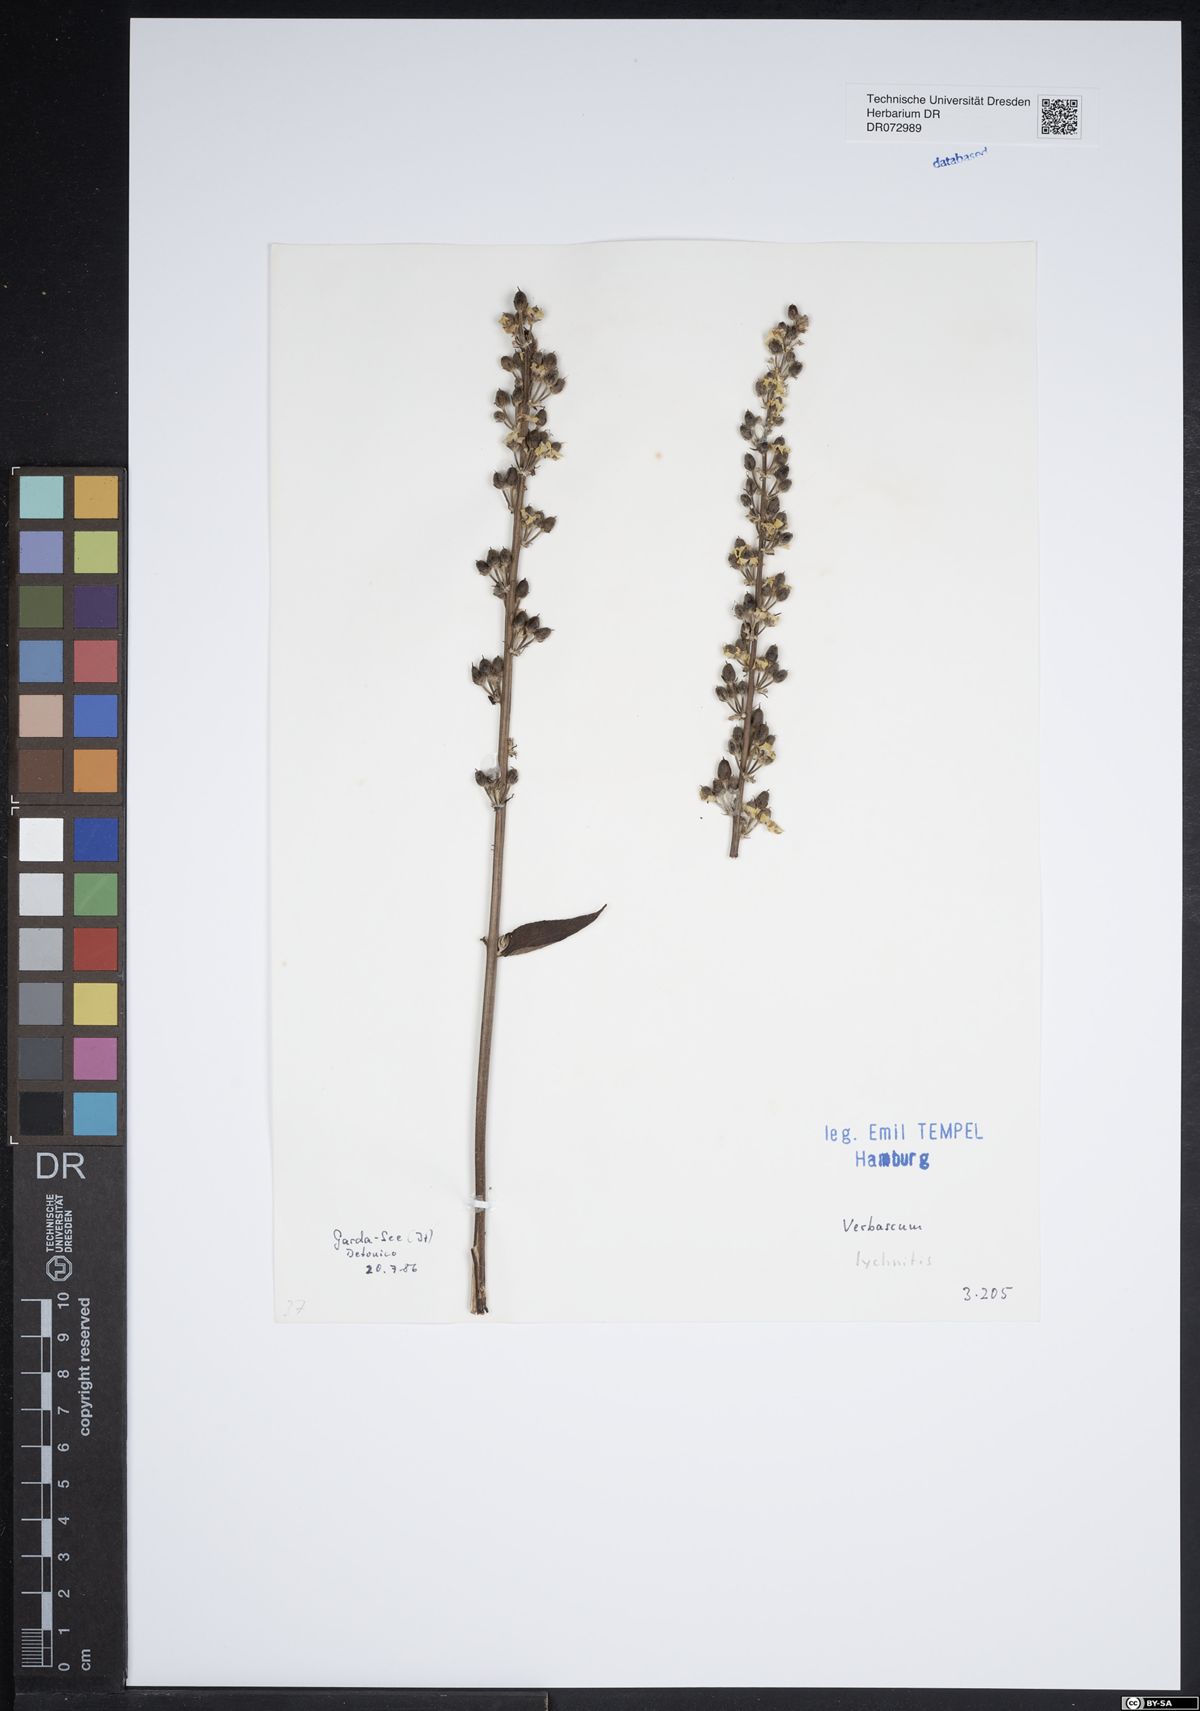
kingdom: Plantae
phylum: Tracheophyta
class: Magnoliopsida
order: Lamiales
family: Scrophulariaceae
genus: Verbascum
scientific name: Verbascum lychnitis
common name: White mullein
